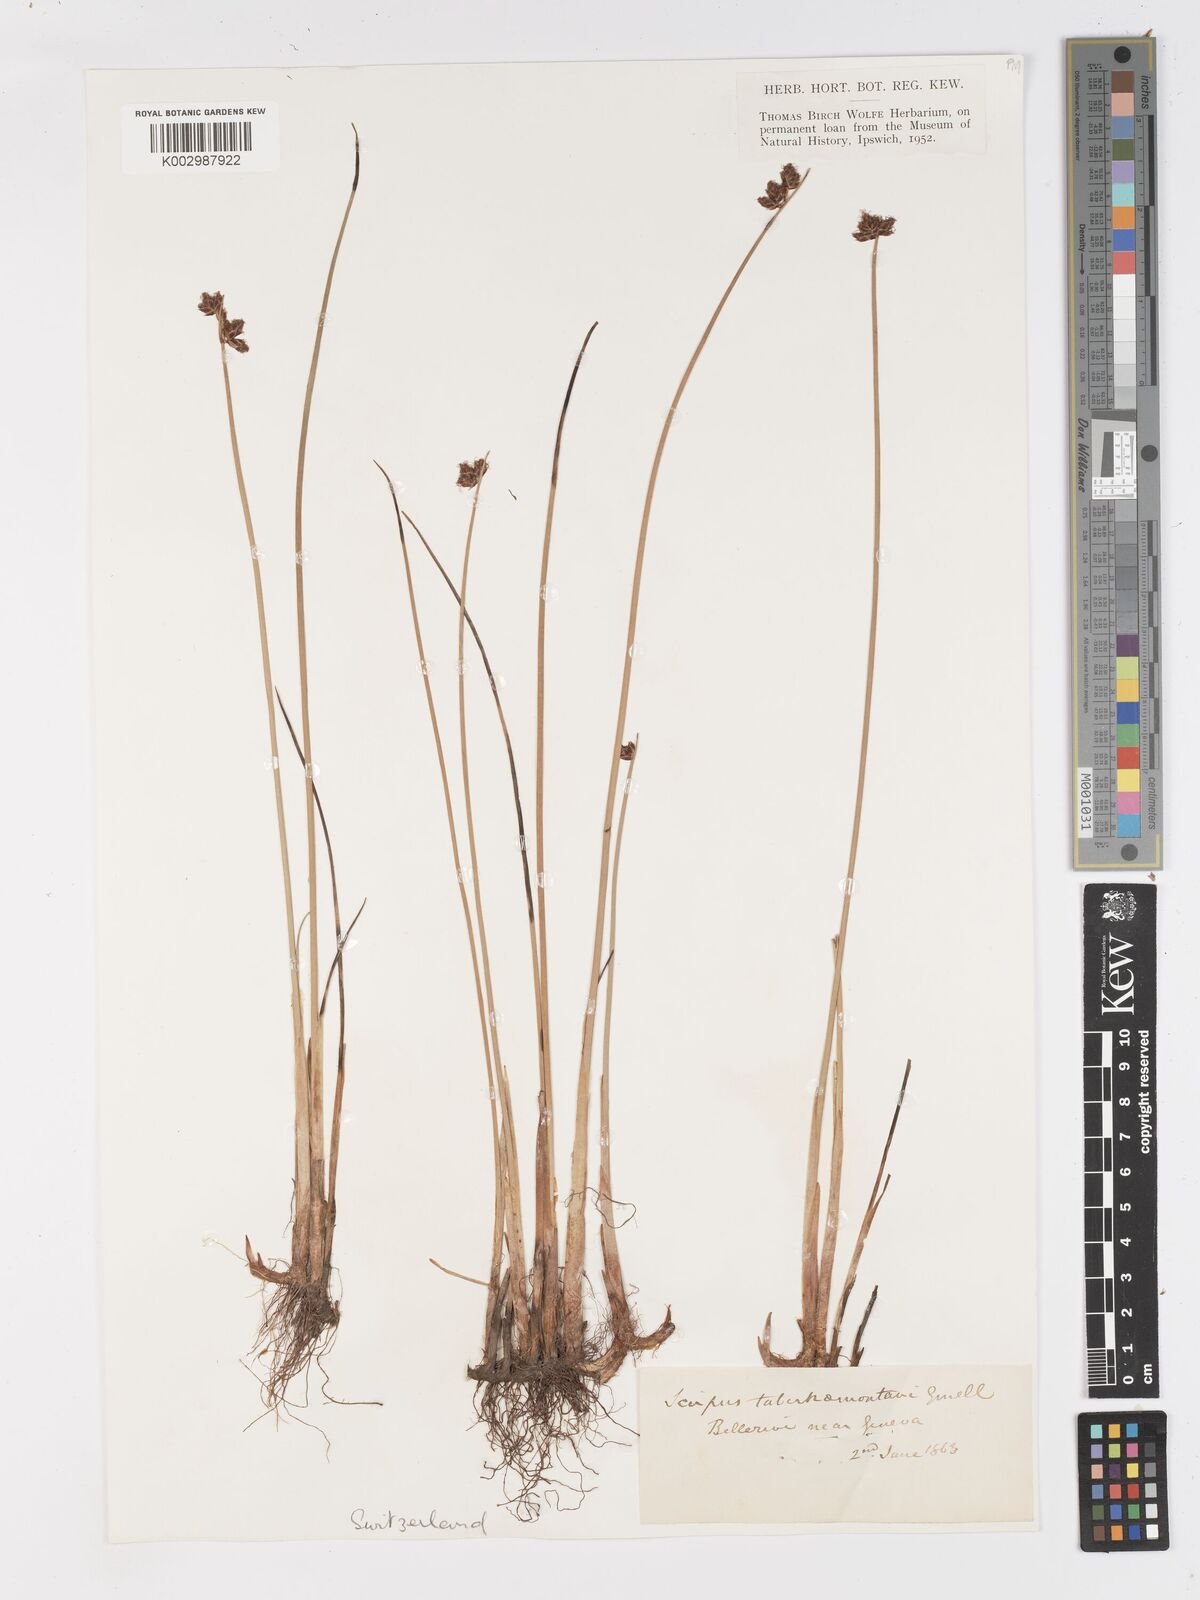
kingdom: Plantae
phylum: Tracheophyta
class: Liliopsida
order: Poales
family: Cyperaceae
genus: Schoenoplectus
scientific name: Schoenoplectus tabernaemontani
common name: Grey club-rush
